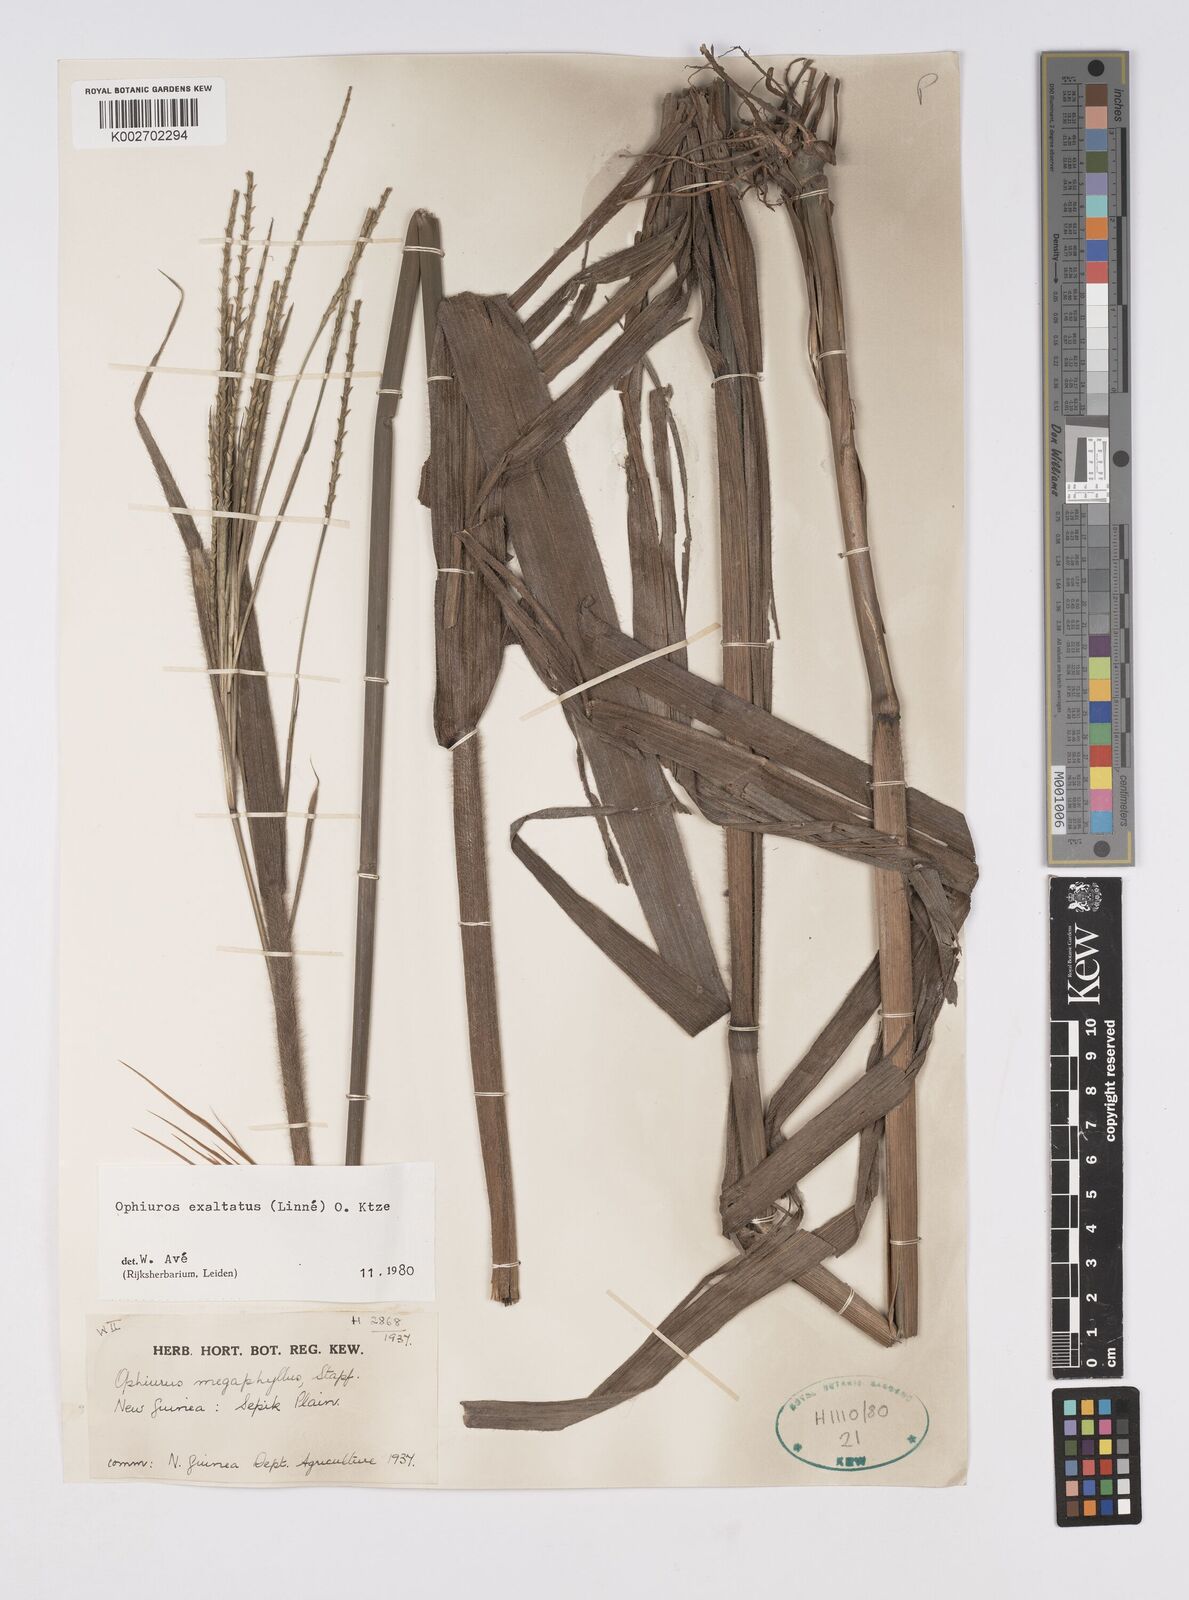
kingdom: Plantae
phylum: Tracheophyta
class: Liliopsida
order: Poales
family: Poaceae
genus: Ophiuros
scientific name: Ophiuros megaphyllus
